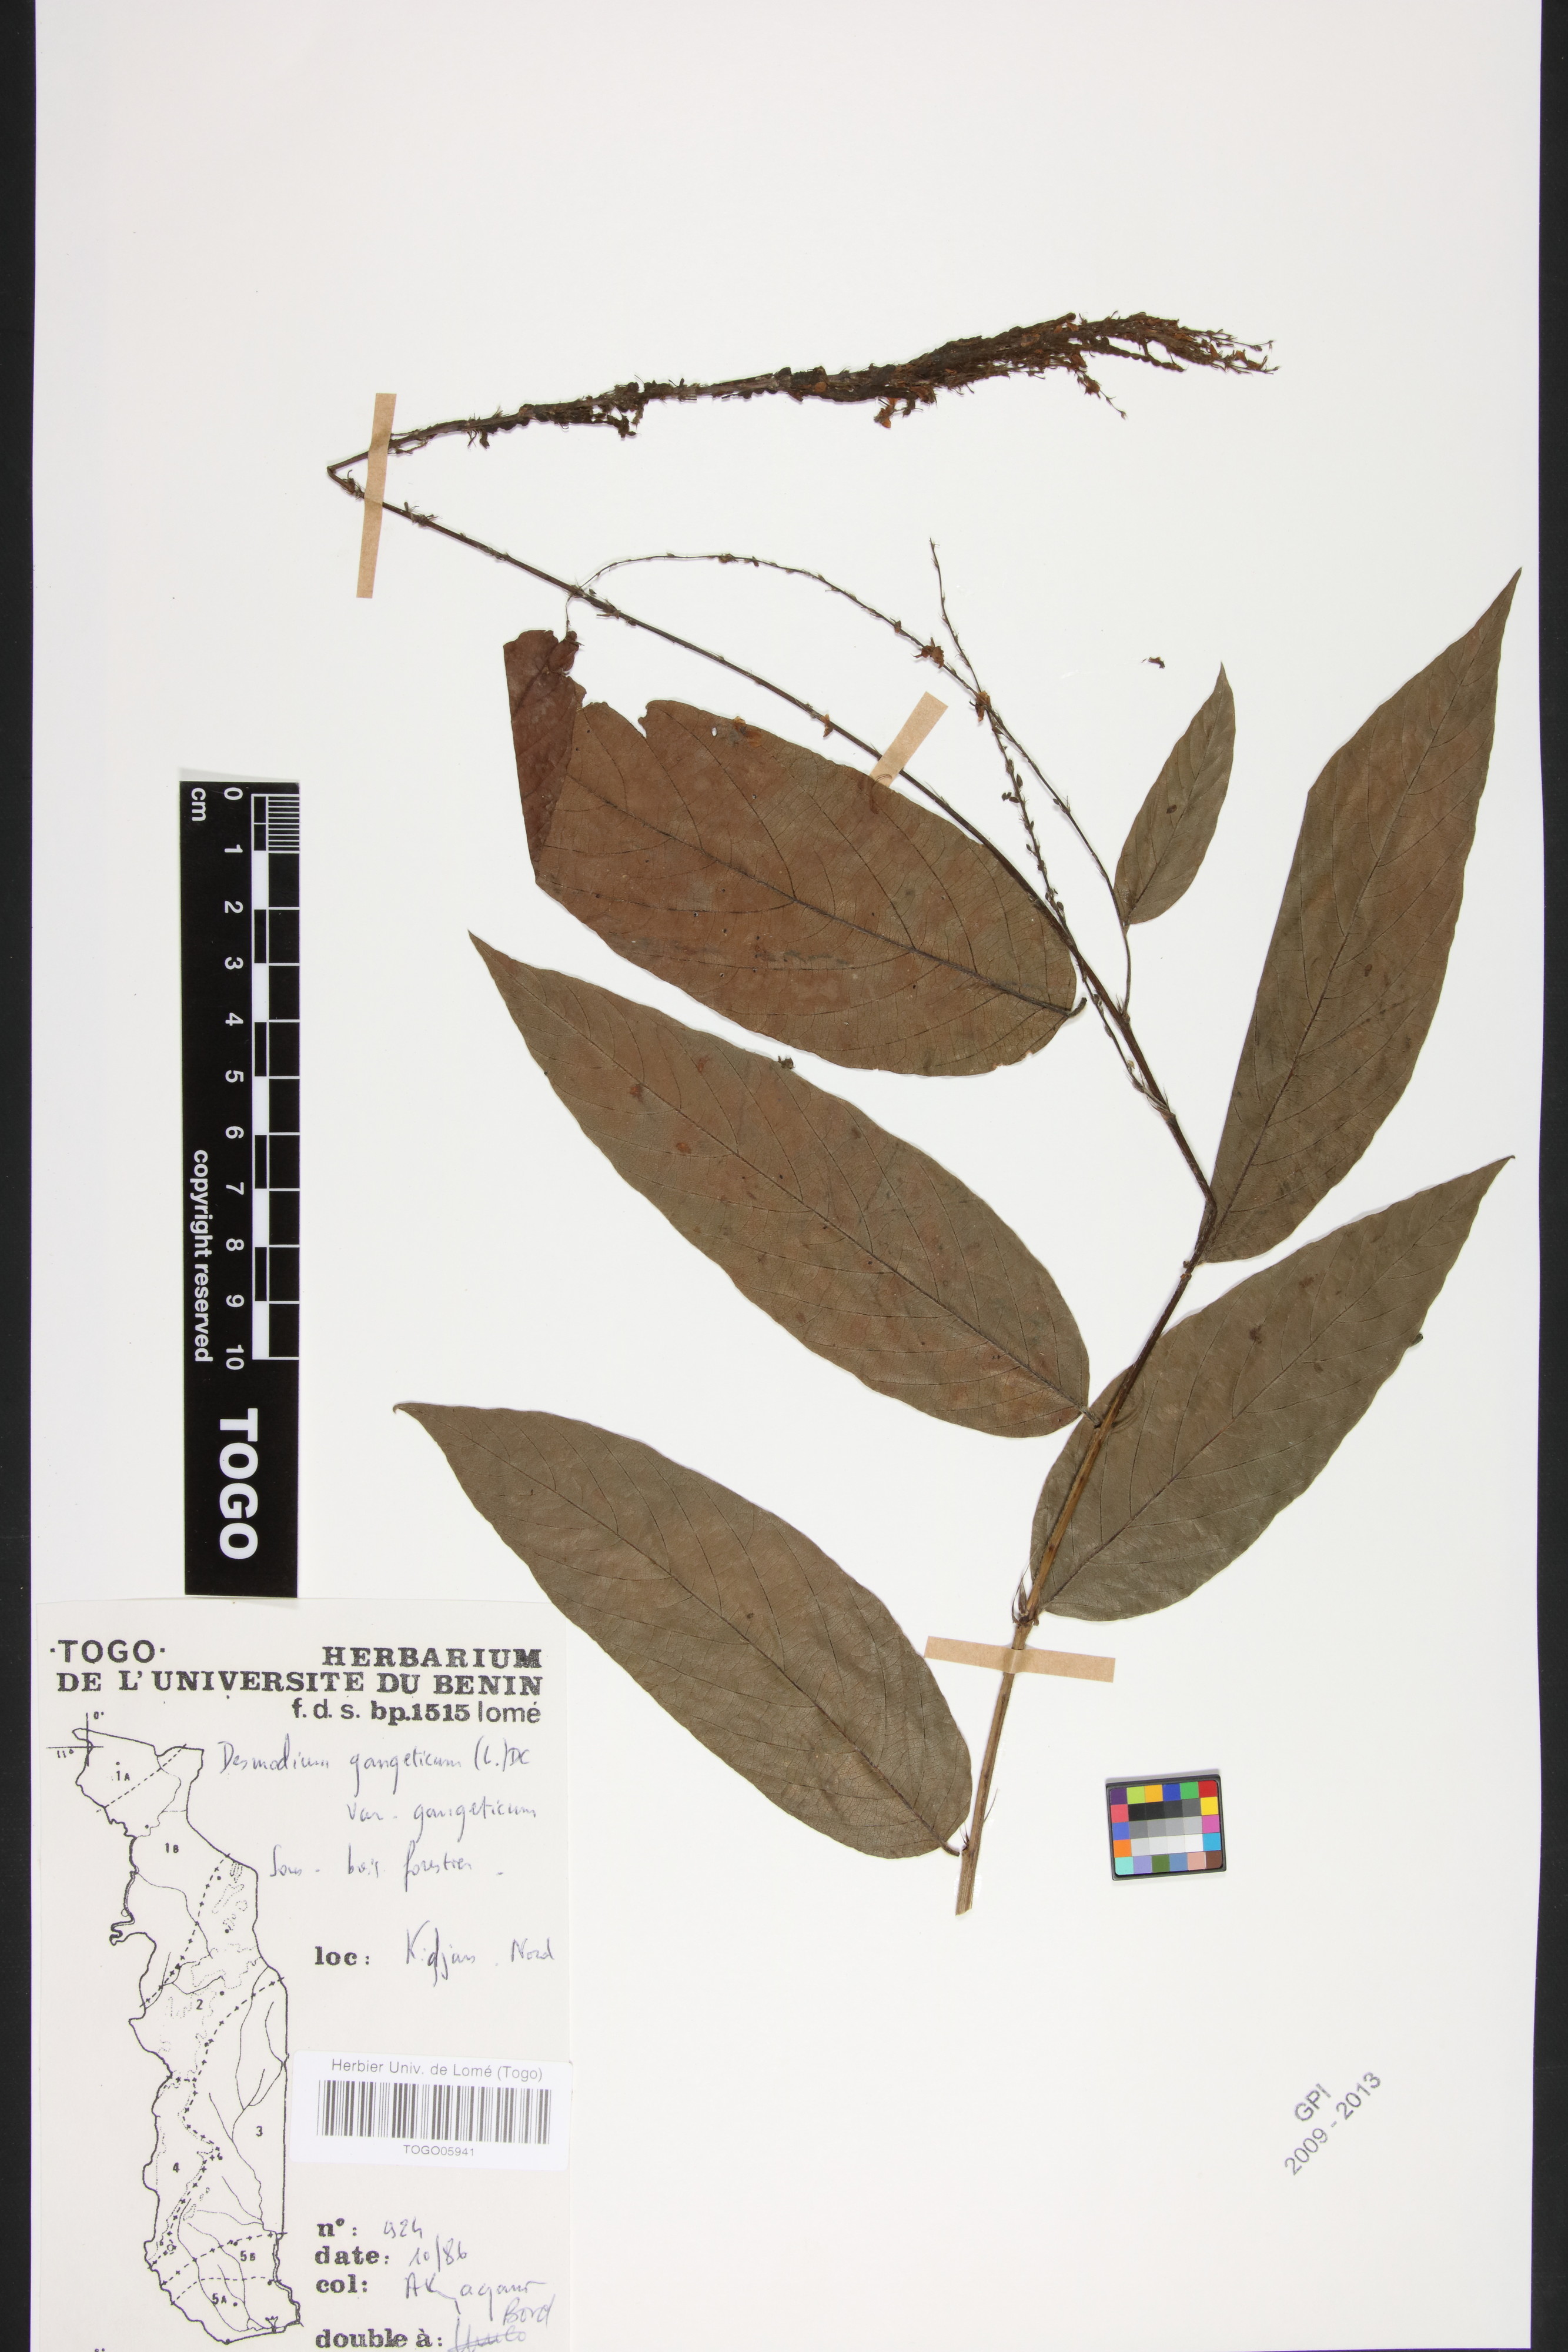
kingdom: Plantae
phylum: Tracheophyta
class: Magnoliopsida
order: Fabales
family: Fabaceae
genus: Pleurolobus
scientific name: Pleurolobus gangeticus
